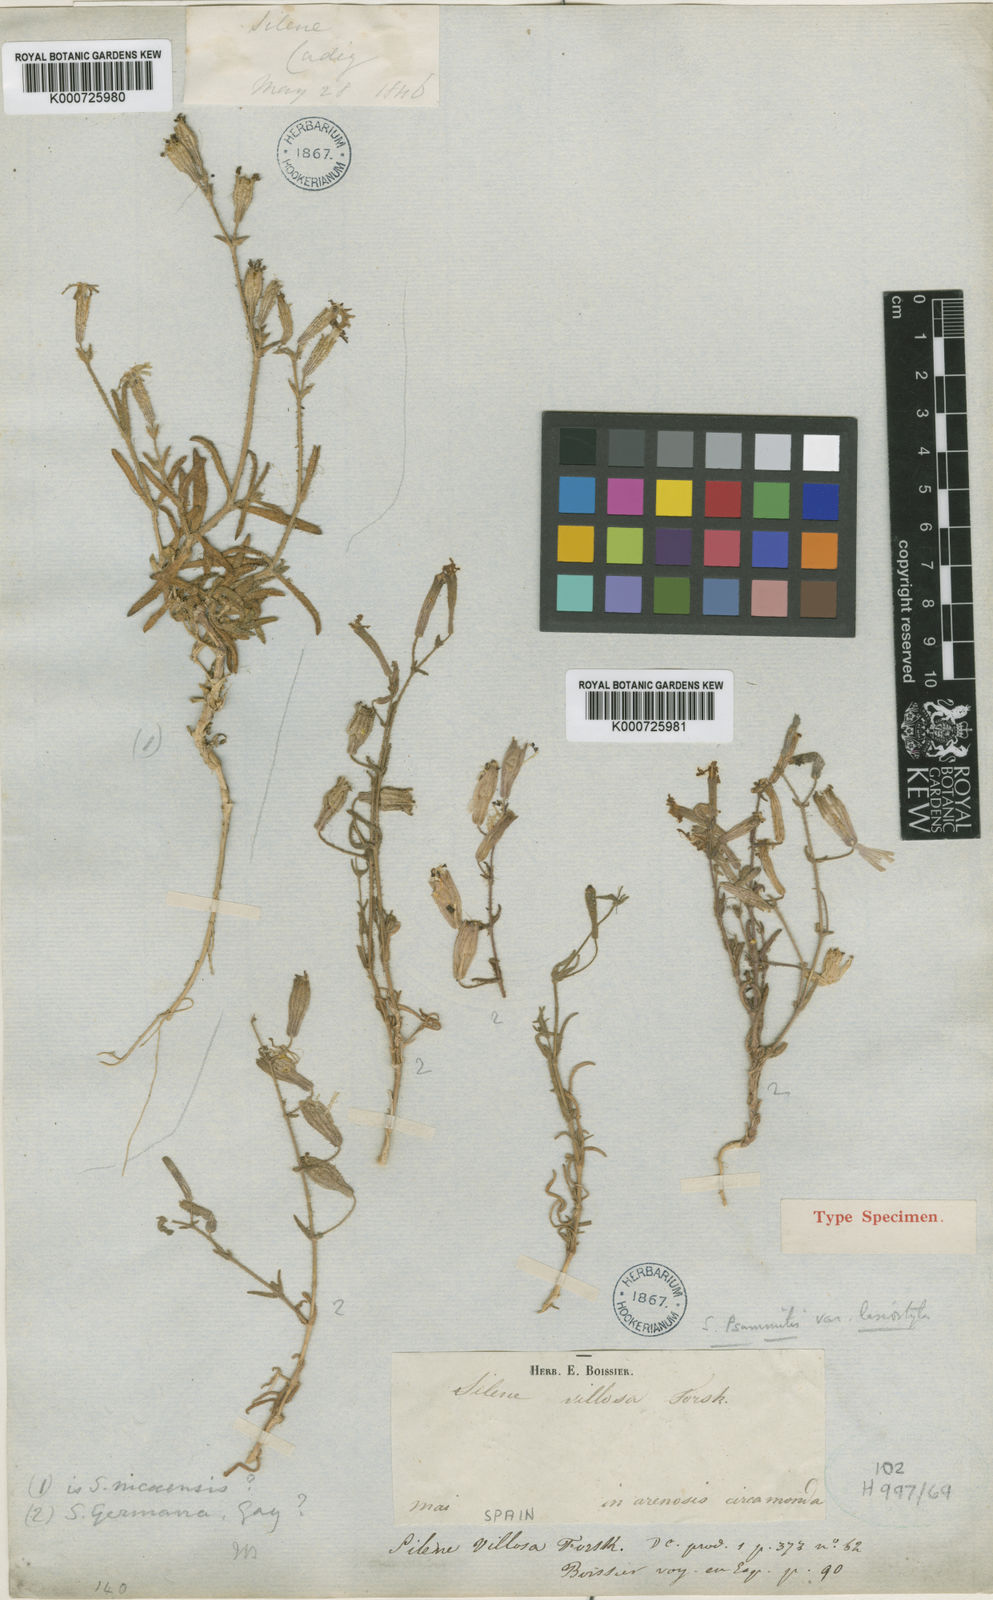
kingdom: Plantae
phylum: Tracheophyta
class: Magnoliopsida
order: Caryophyllales
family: Caryophyllaceae
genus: Silene
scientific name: Silene psammitis
